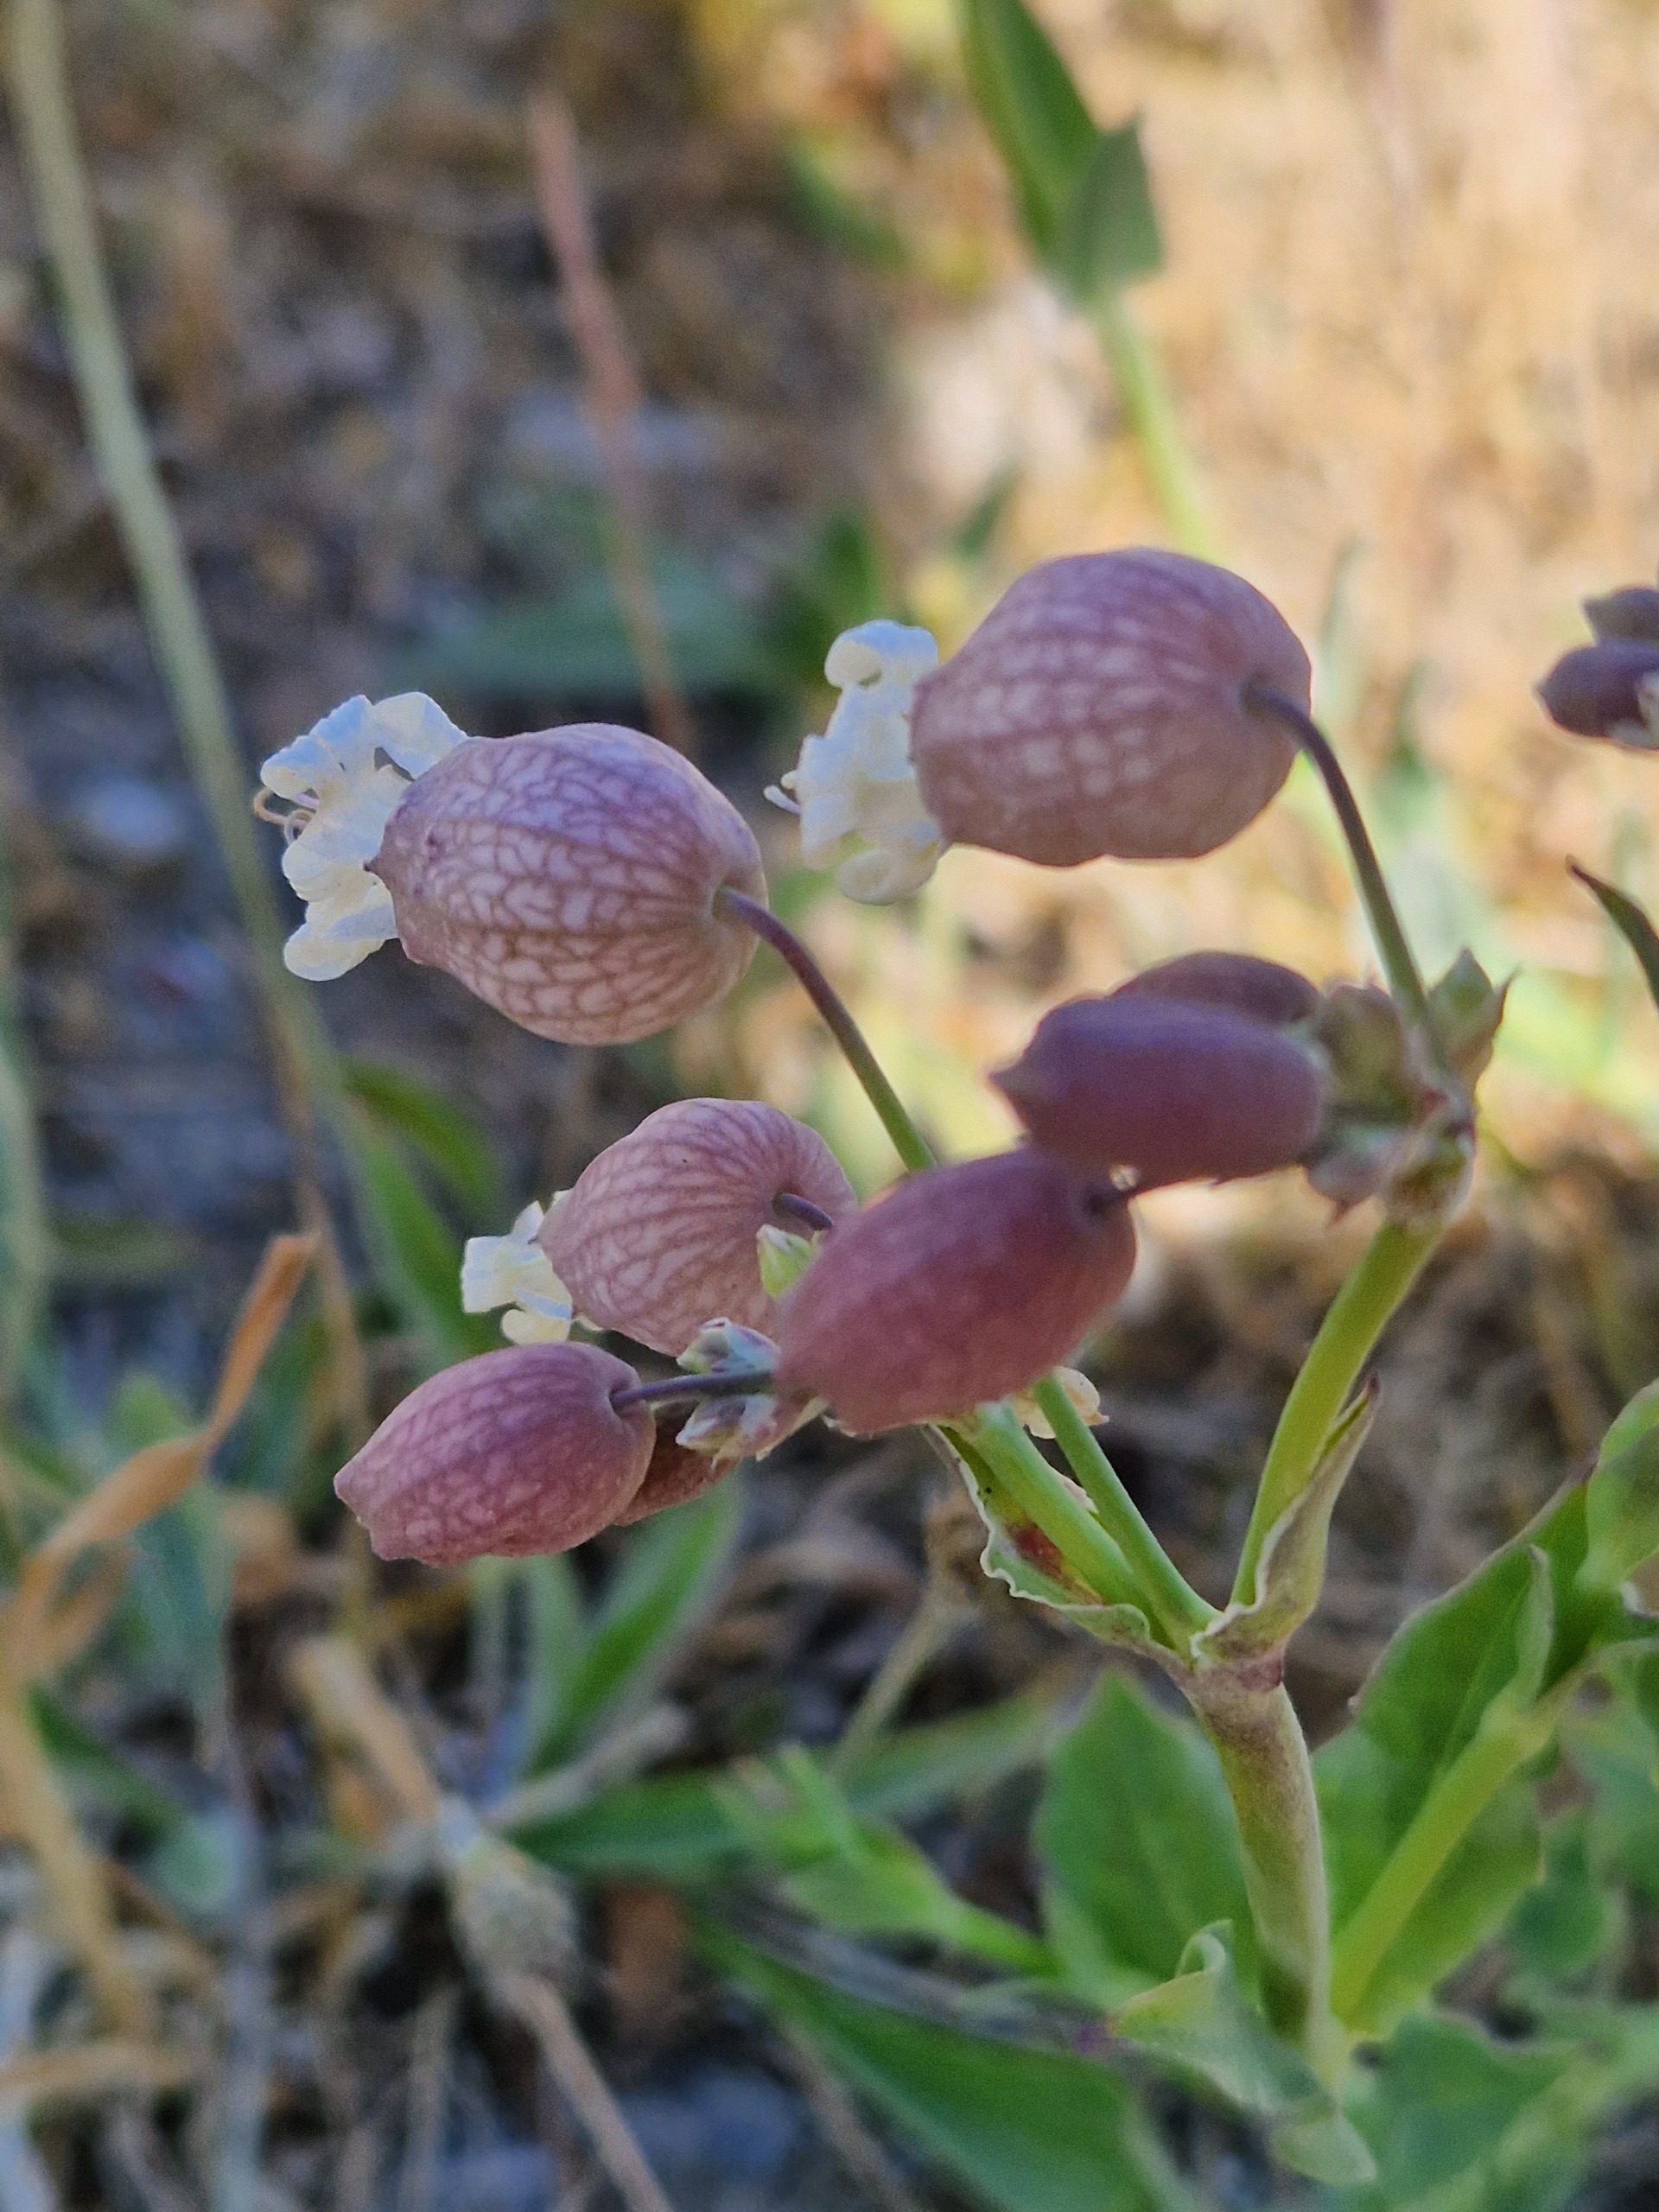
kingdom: Plantae
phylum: Tracheophyta
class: Magnoliopsida
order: Caryophyllales
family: Caryophyllaceae
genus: Silene
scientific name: Silene vulgaris
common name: Blæresmælde
